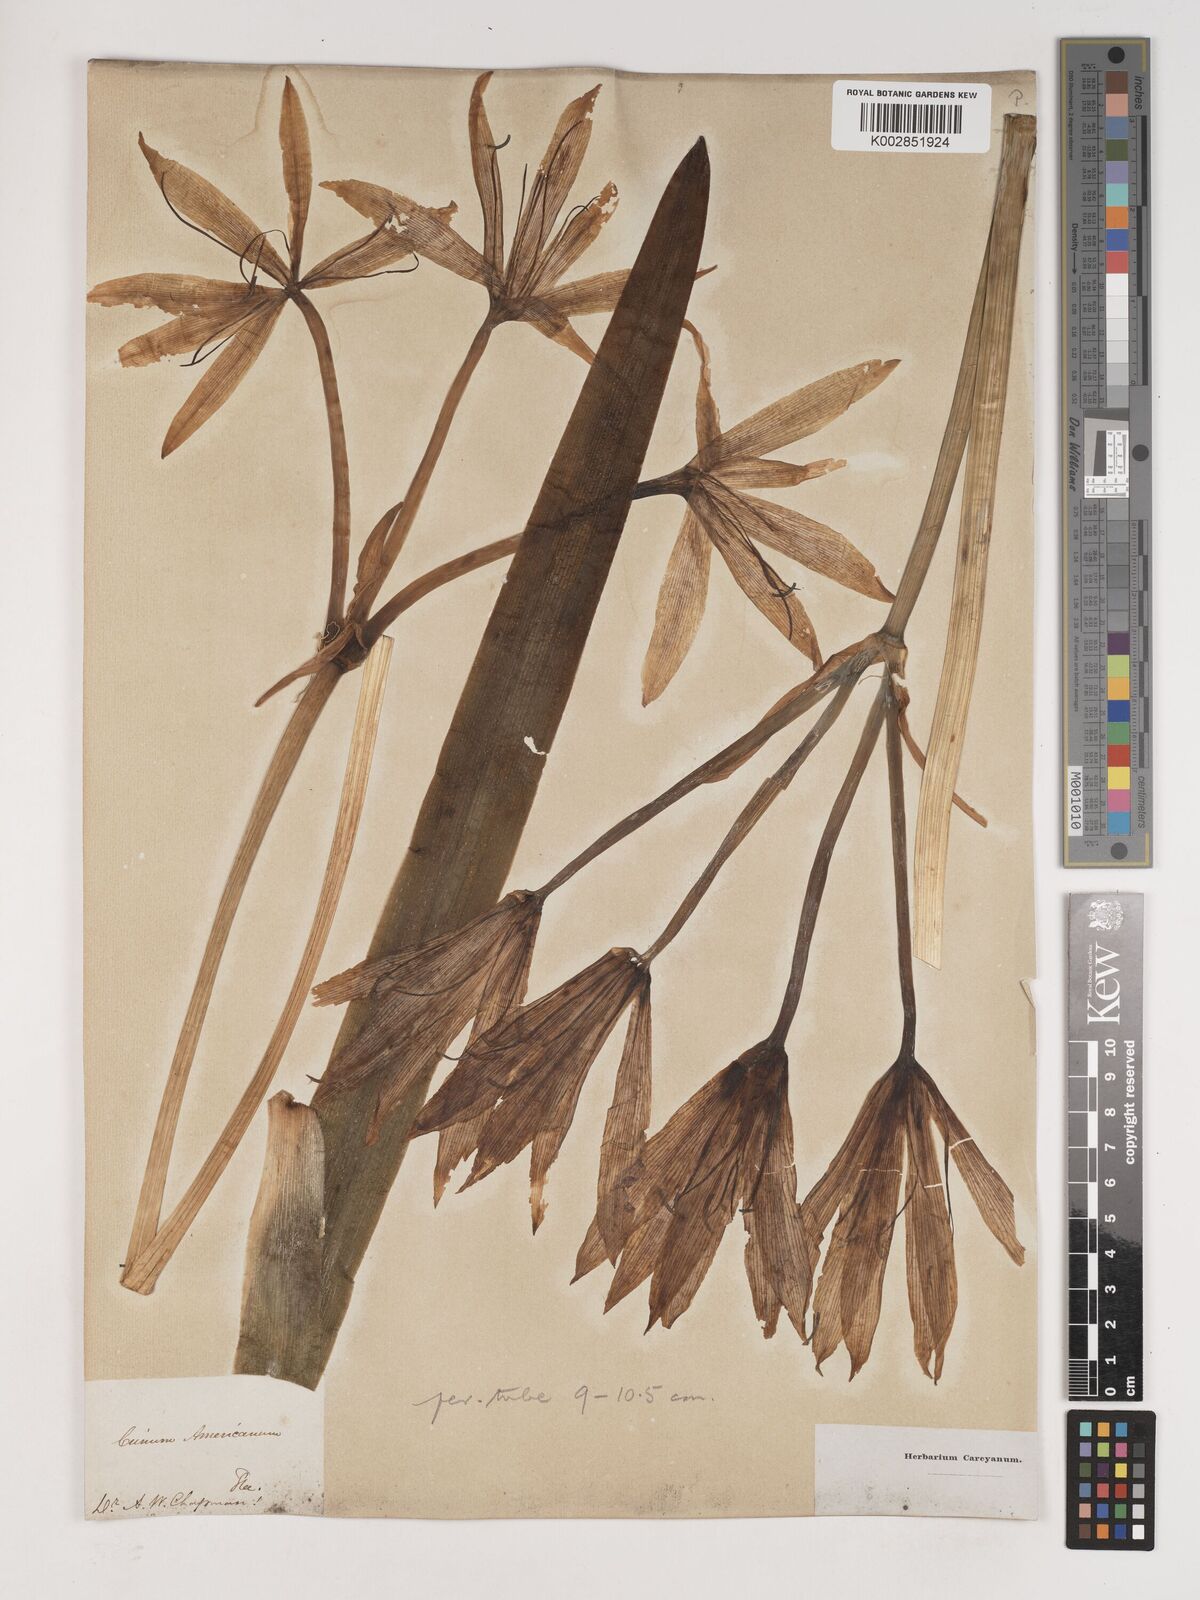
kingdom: Plantae
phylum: Tracheophyta
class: Liliopsida
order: Asparagales
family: Amaryllidaceae
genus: Crinum
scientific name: Crinum americanum
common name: Florida swamp-lily
